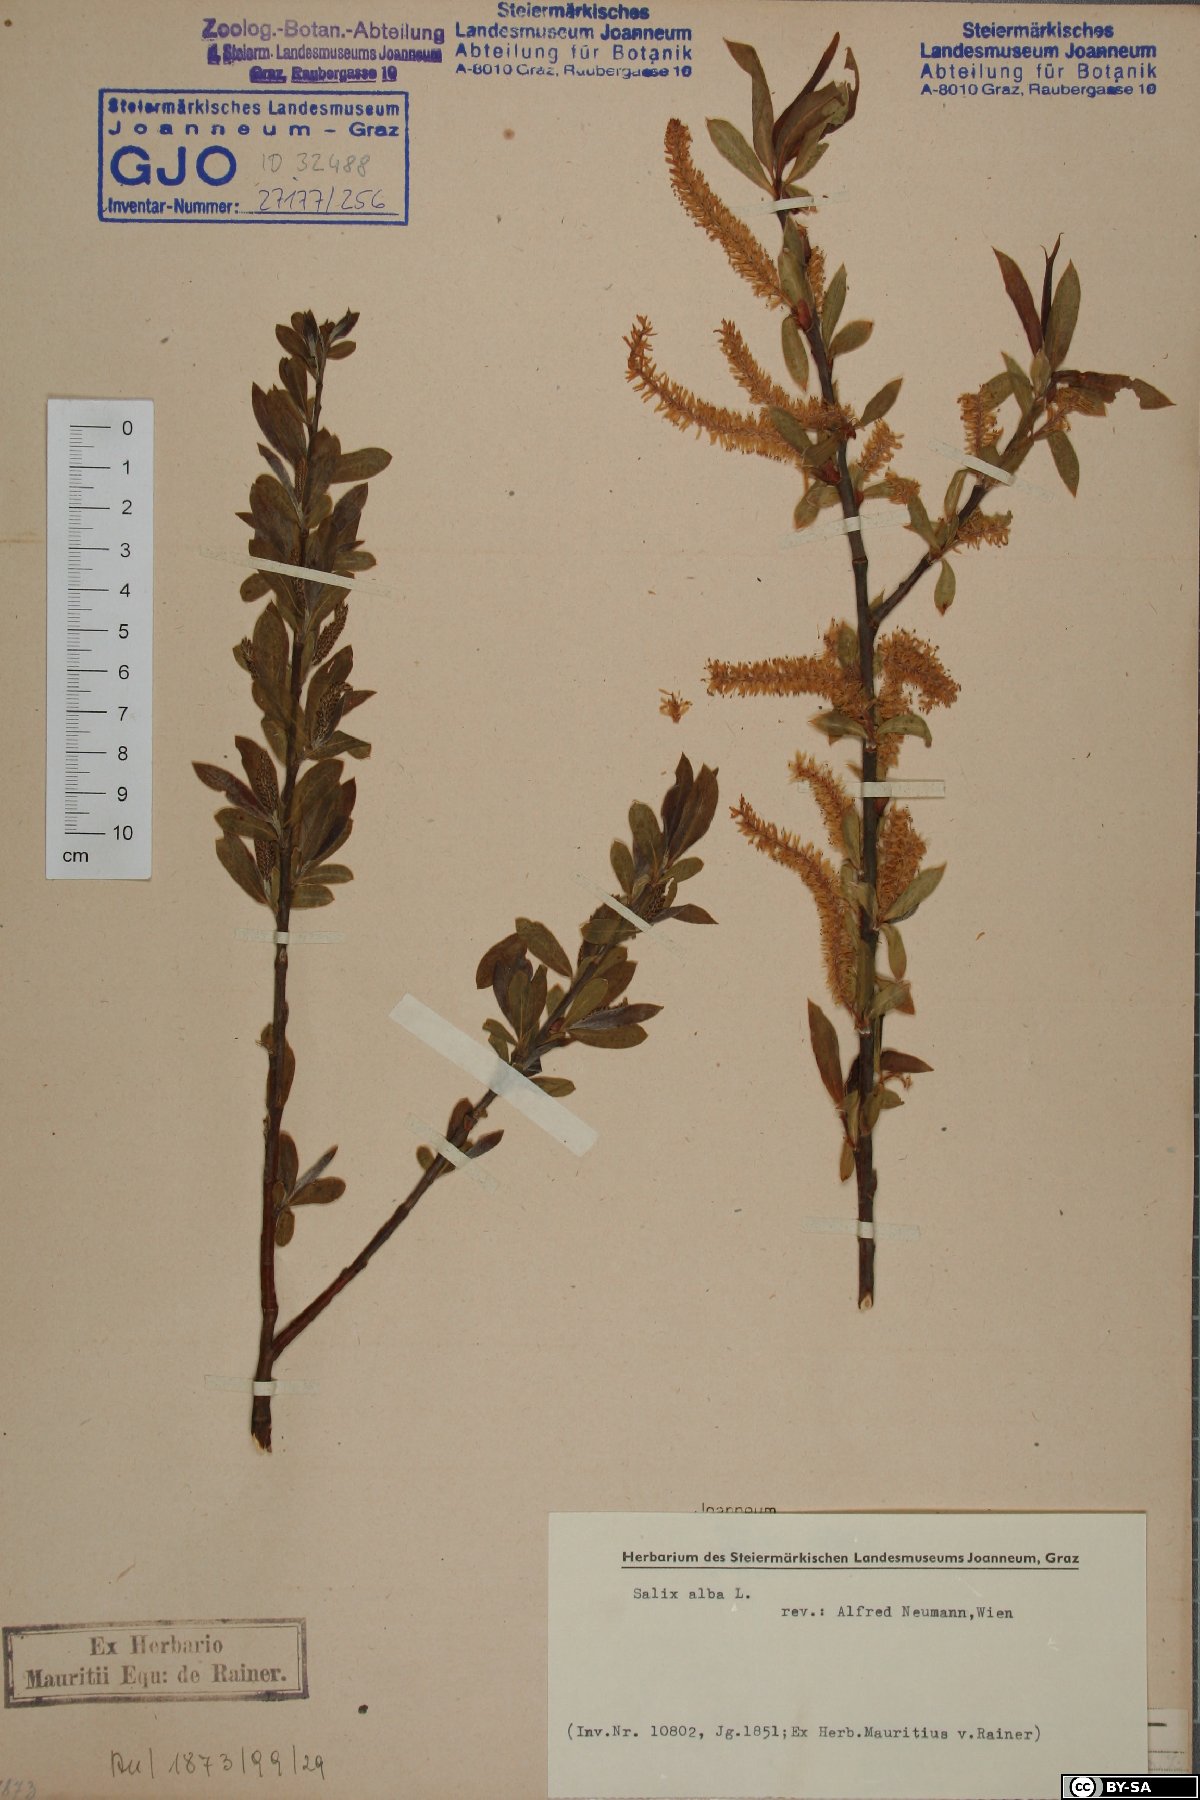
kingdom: Plantae
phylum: Tracheophyta
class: Magnoliopsida
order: Malpighiales
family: Salicaceae
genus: Salix
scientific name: Salix alba
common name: White willow
